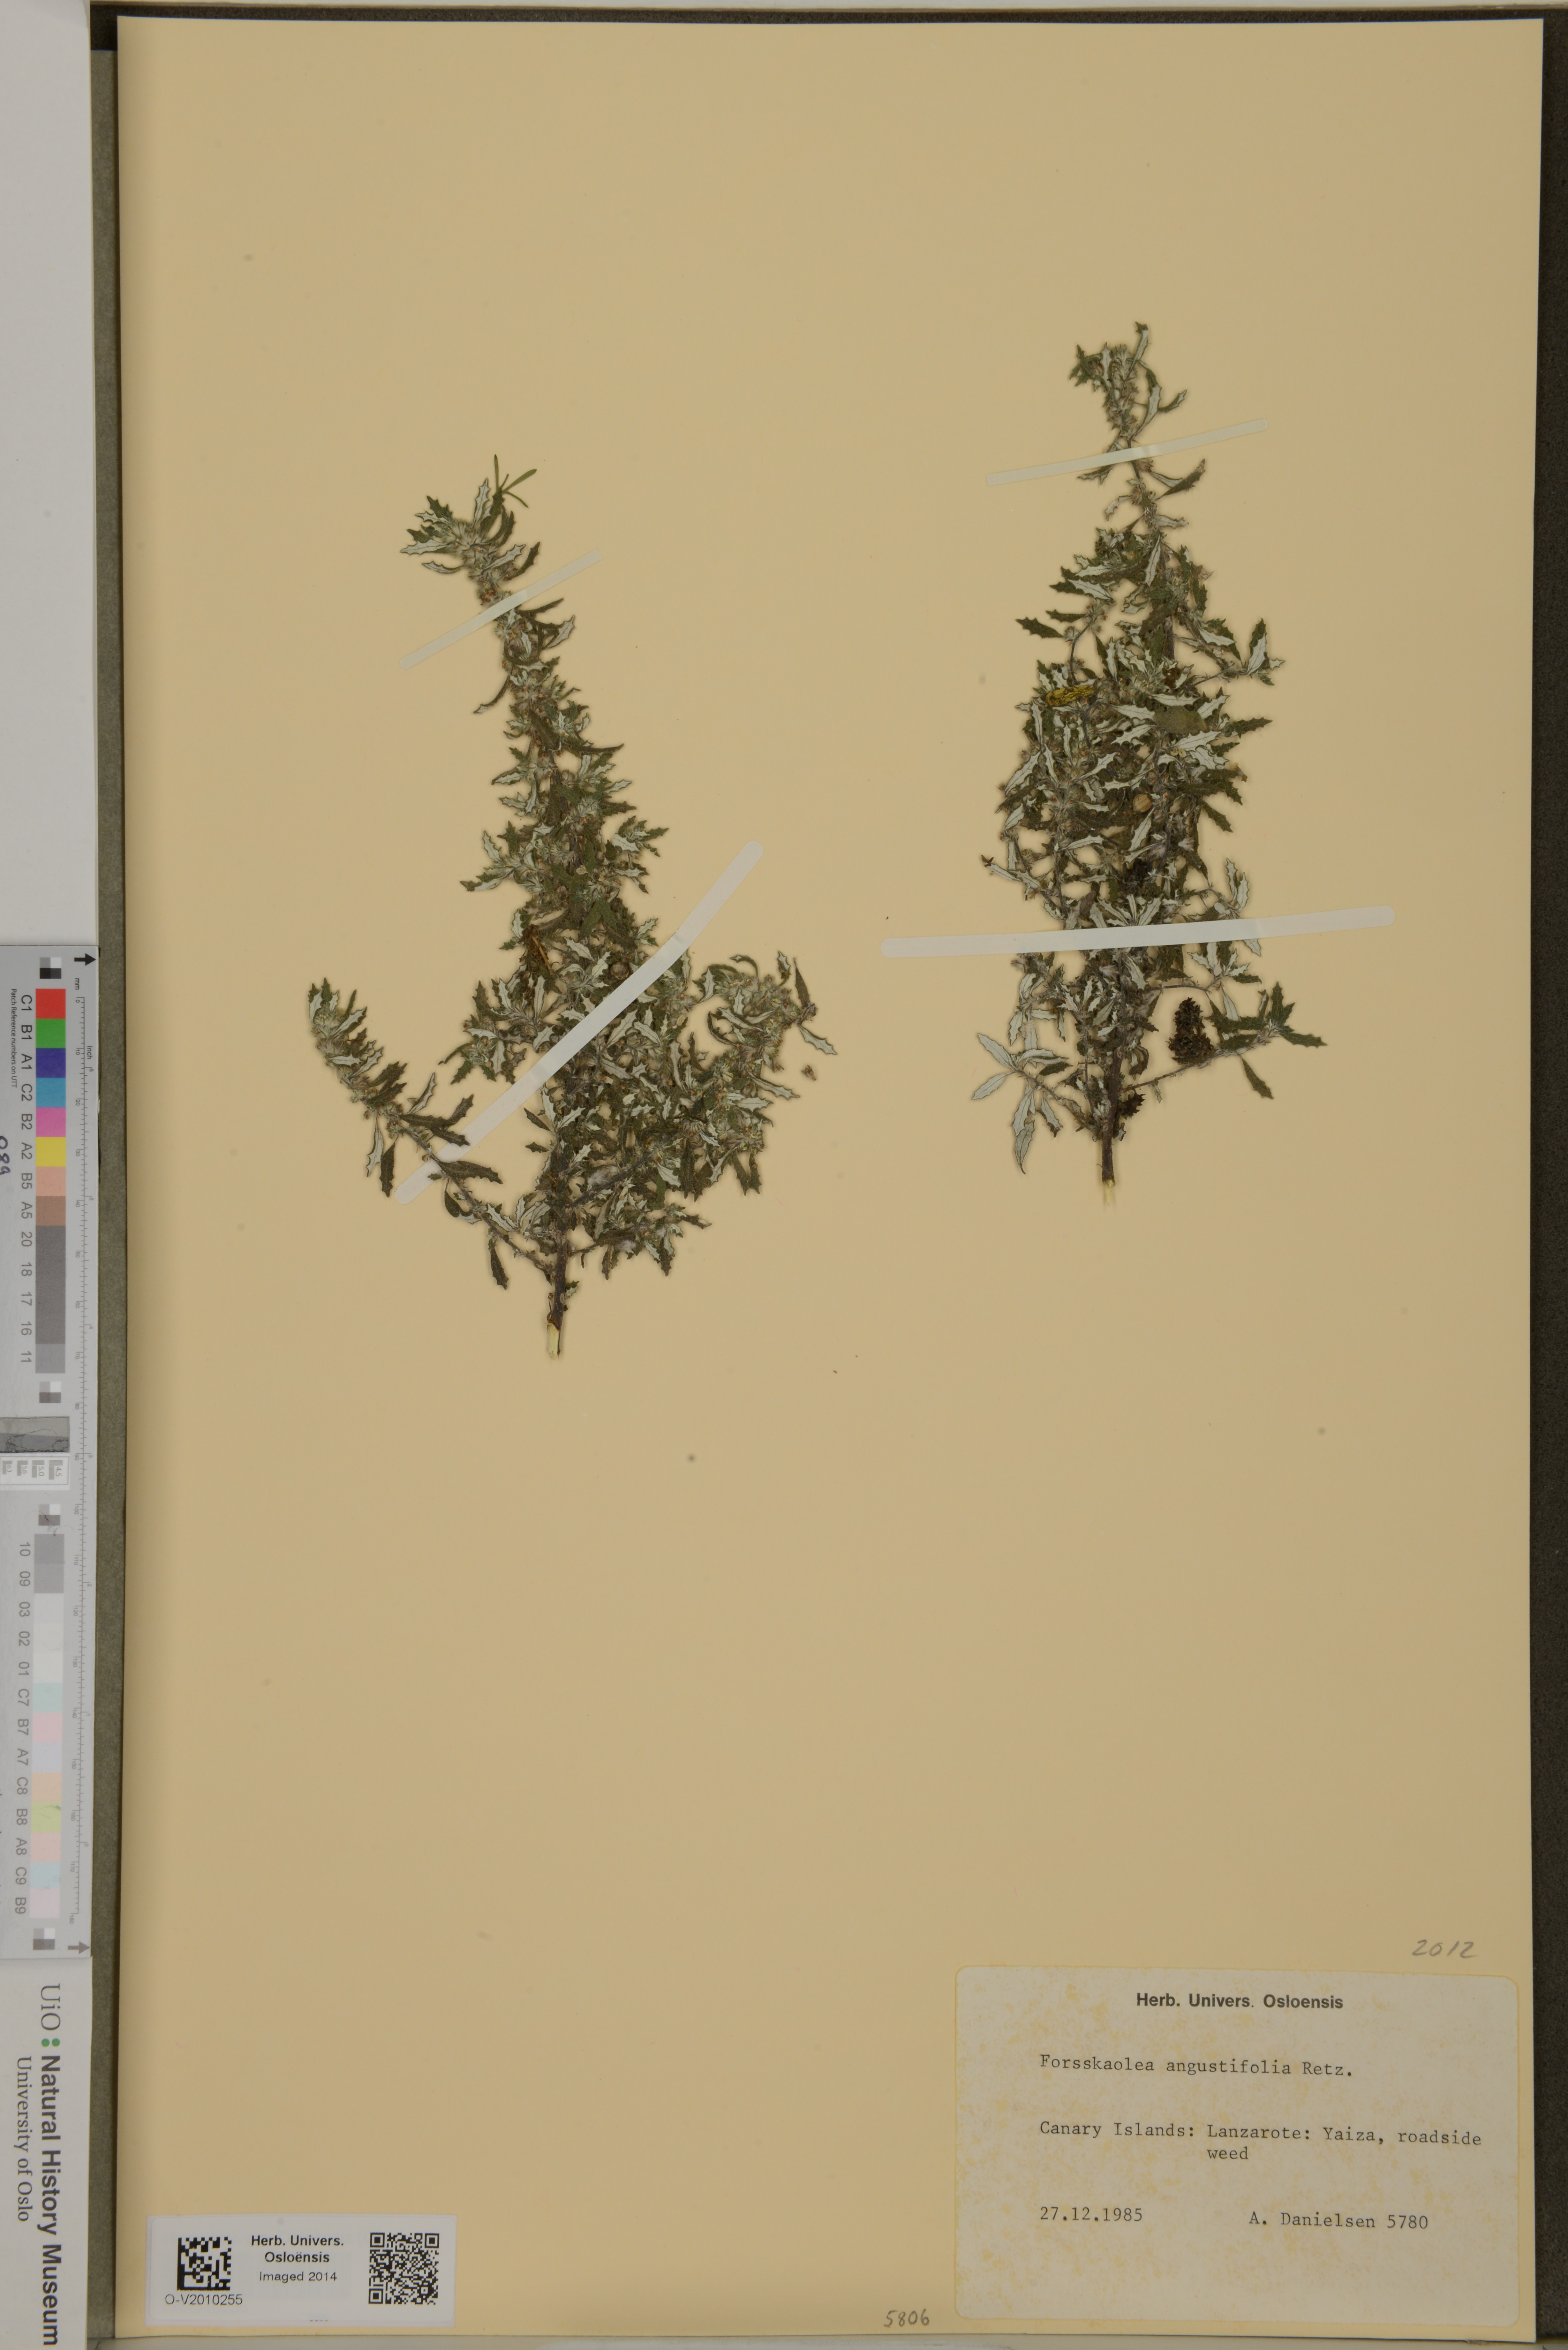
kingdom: Plantae
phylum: Tracheophyta
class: Magnoliopsida
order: Rosales
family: Urticaceae
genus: Forsskaolea
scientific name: Forsskaolea angustifolia
